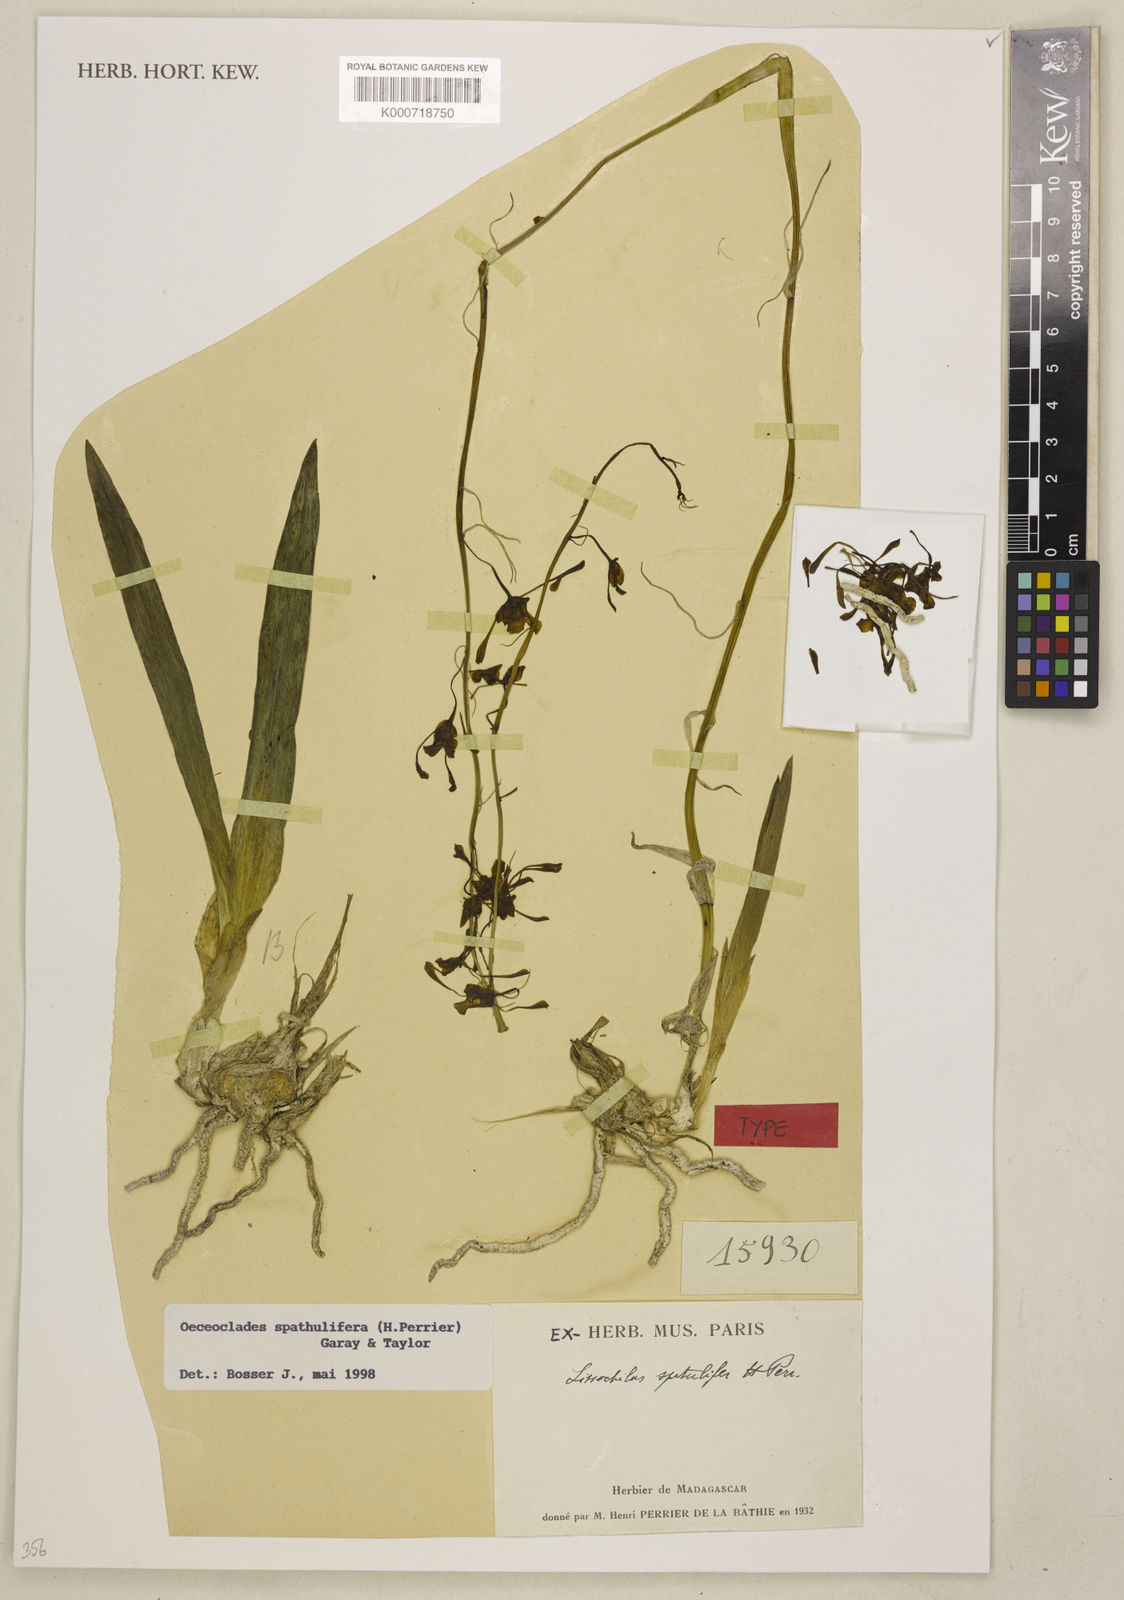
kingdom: Plantae
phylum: Tracheophyta
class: Liliopsida
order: Asparagales
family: Orchidaceae
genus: Eulophia
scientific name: Eulophia spathulifera
